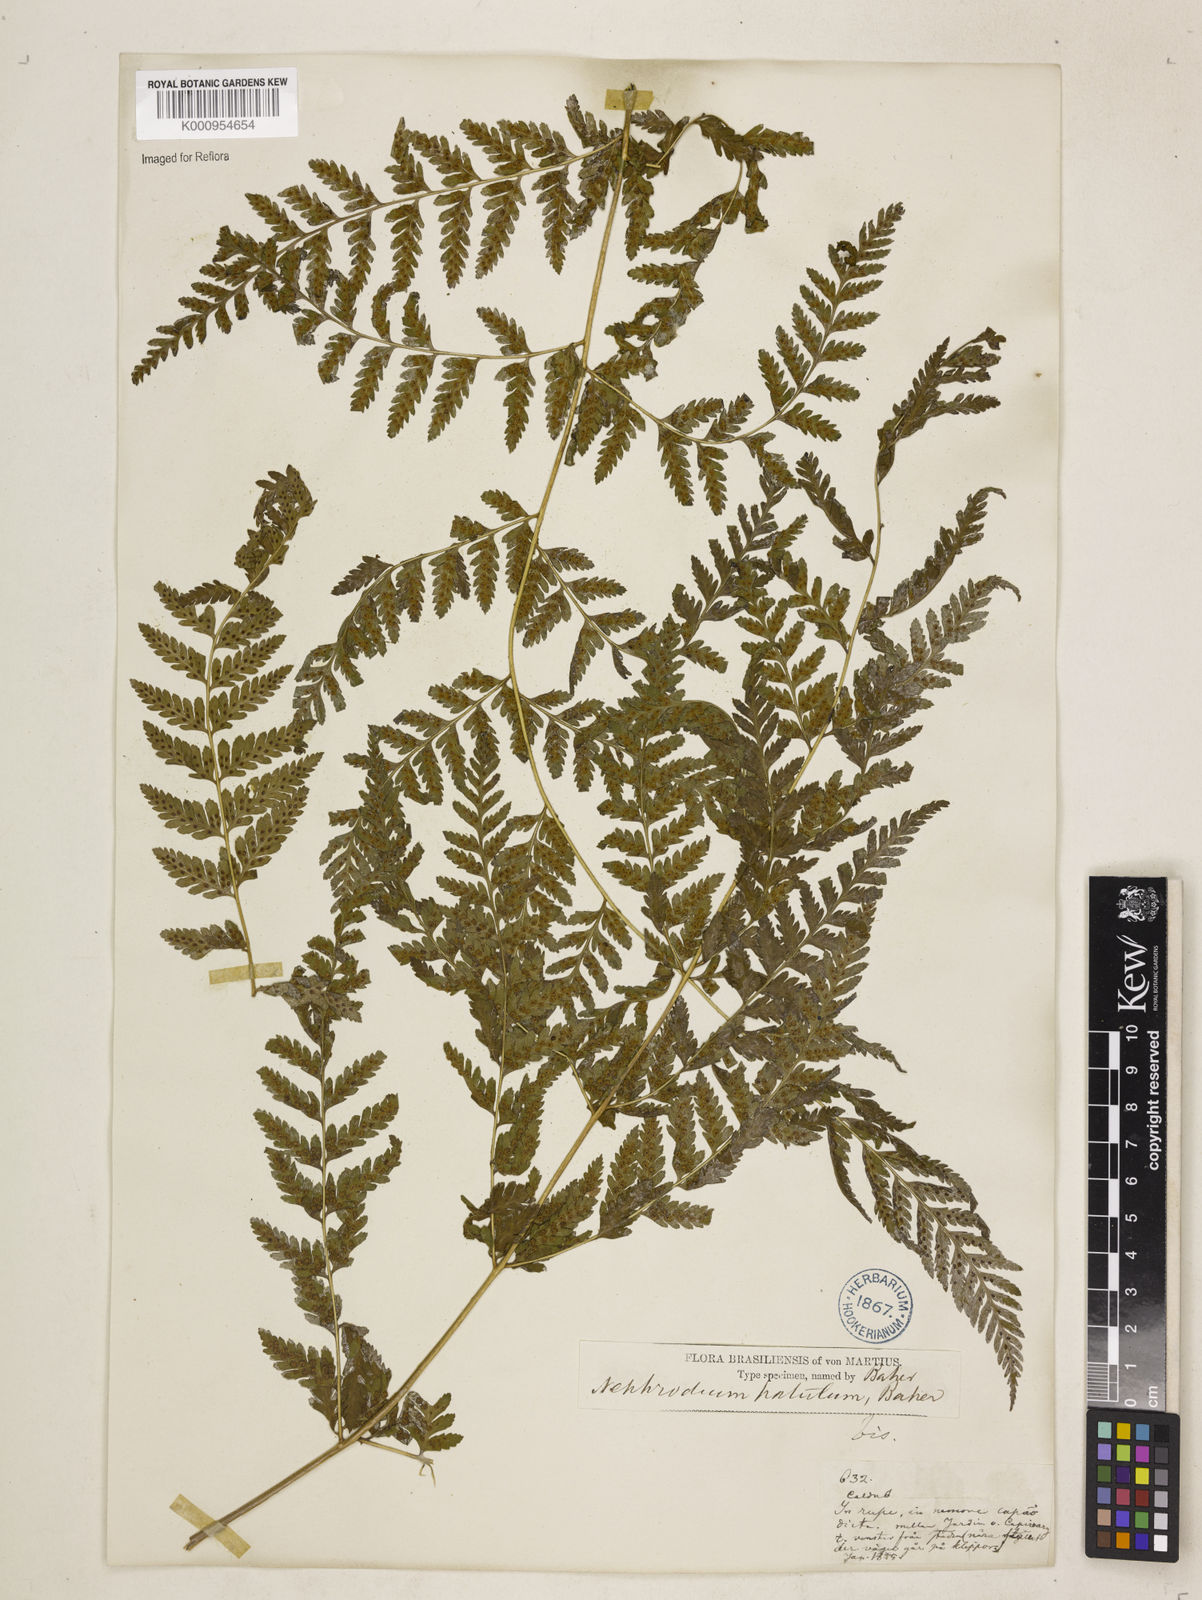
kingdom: Plantae
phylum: Tracheophyta
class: Polypodiopsida
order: Polypodiales
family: Dryopteridaceae
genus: Dryopteris
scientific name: Dryopteris patula
